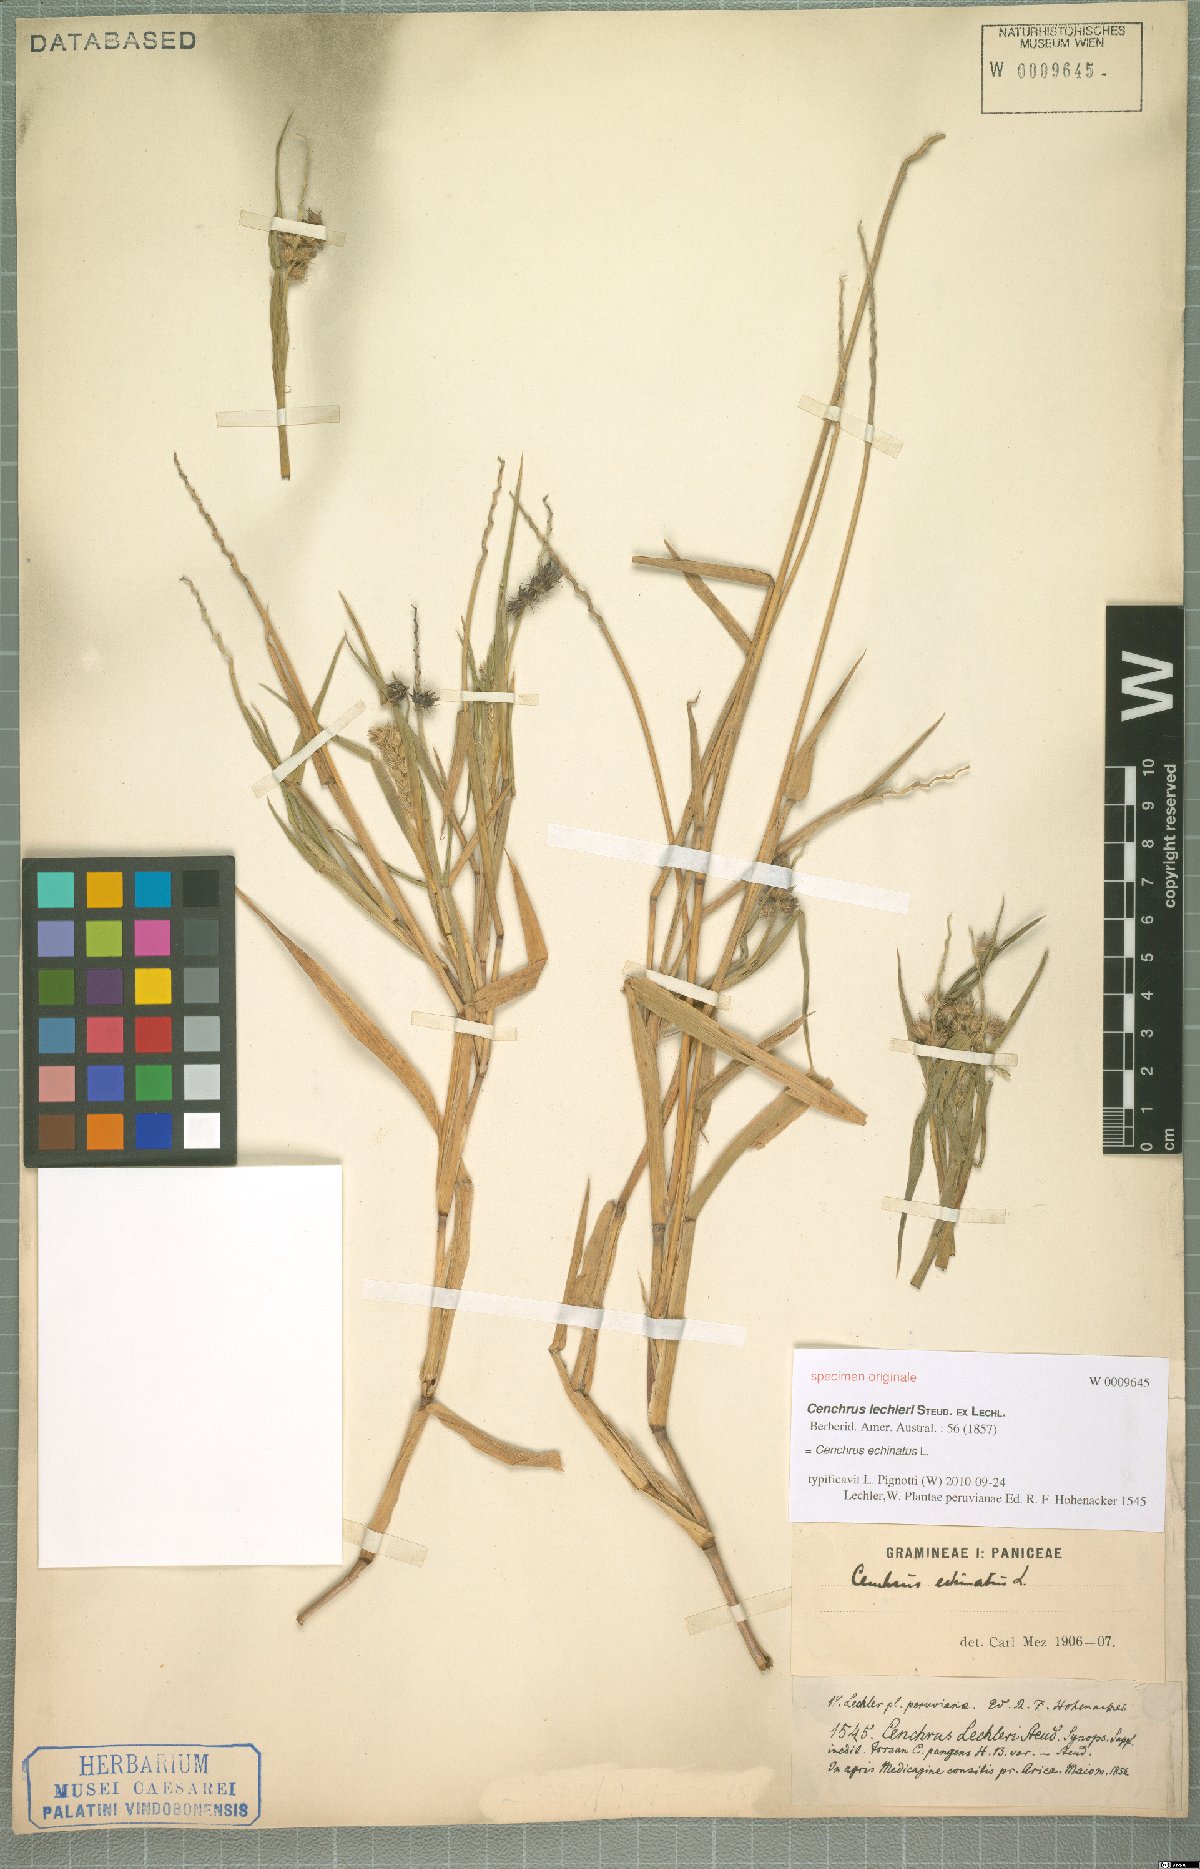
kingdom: Plantae
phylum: Tracheophyta
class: Liliopsida
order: Poales
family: Poaceae
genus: Cenchrus
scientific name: Cenchrus echinatus
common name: Southern sandbur
